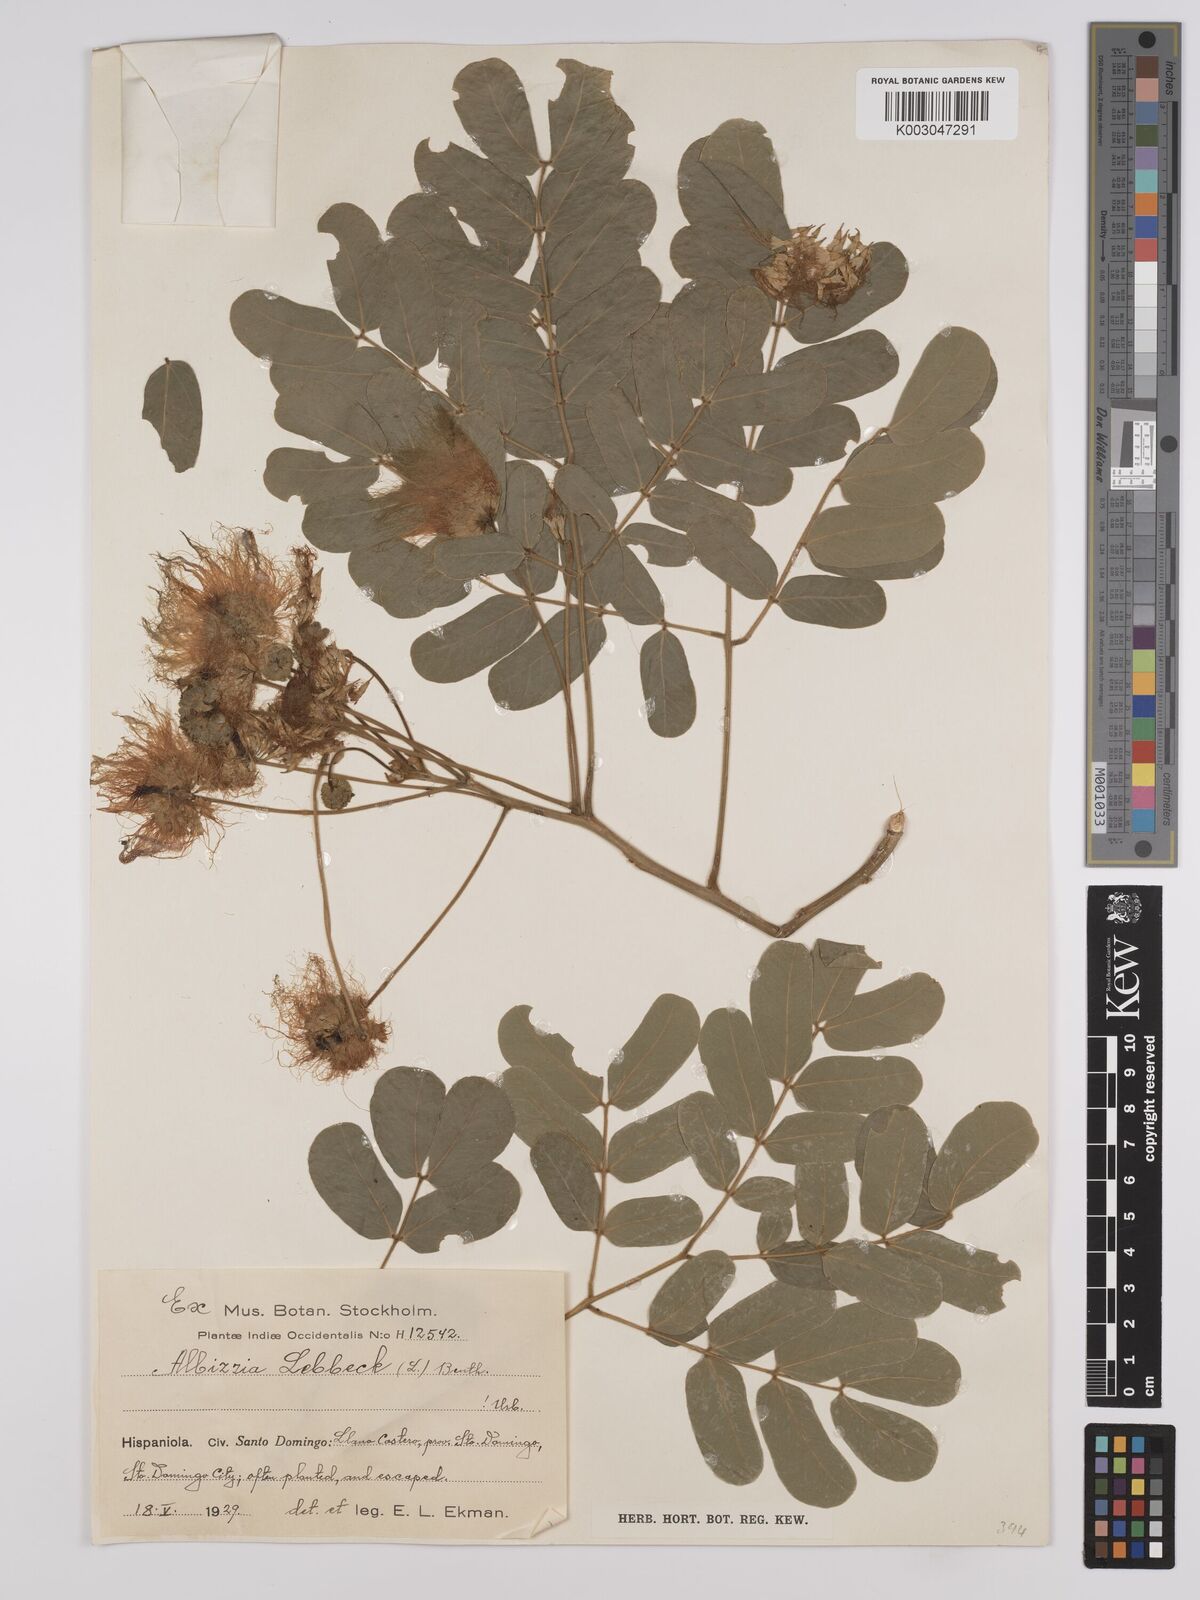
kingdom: Plantae
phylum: Tracheophyta
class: Magnoliopsida
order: Fabales
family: Fabaceae
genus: Albizia
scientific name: Albizia lebbeck
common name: Woman's tongue
